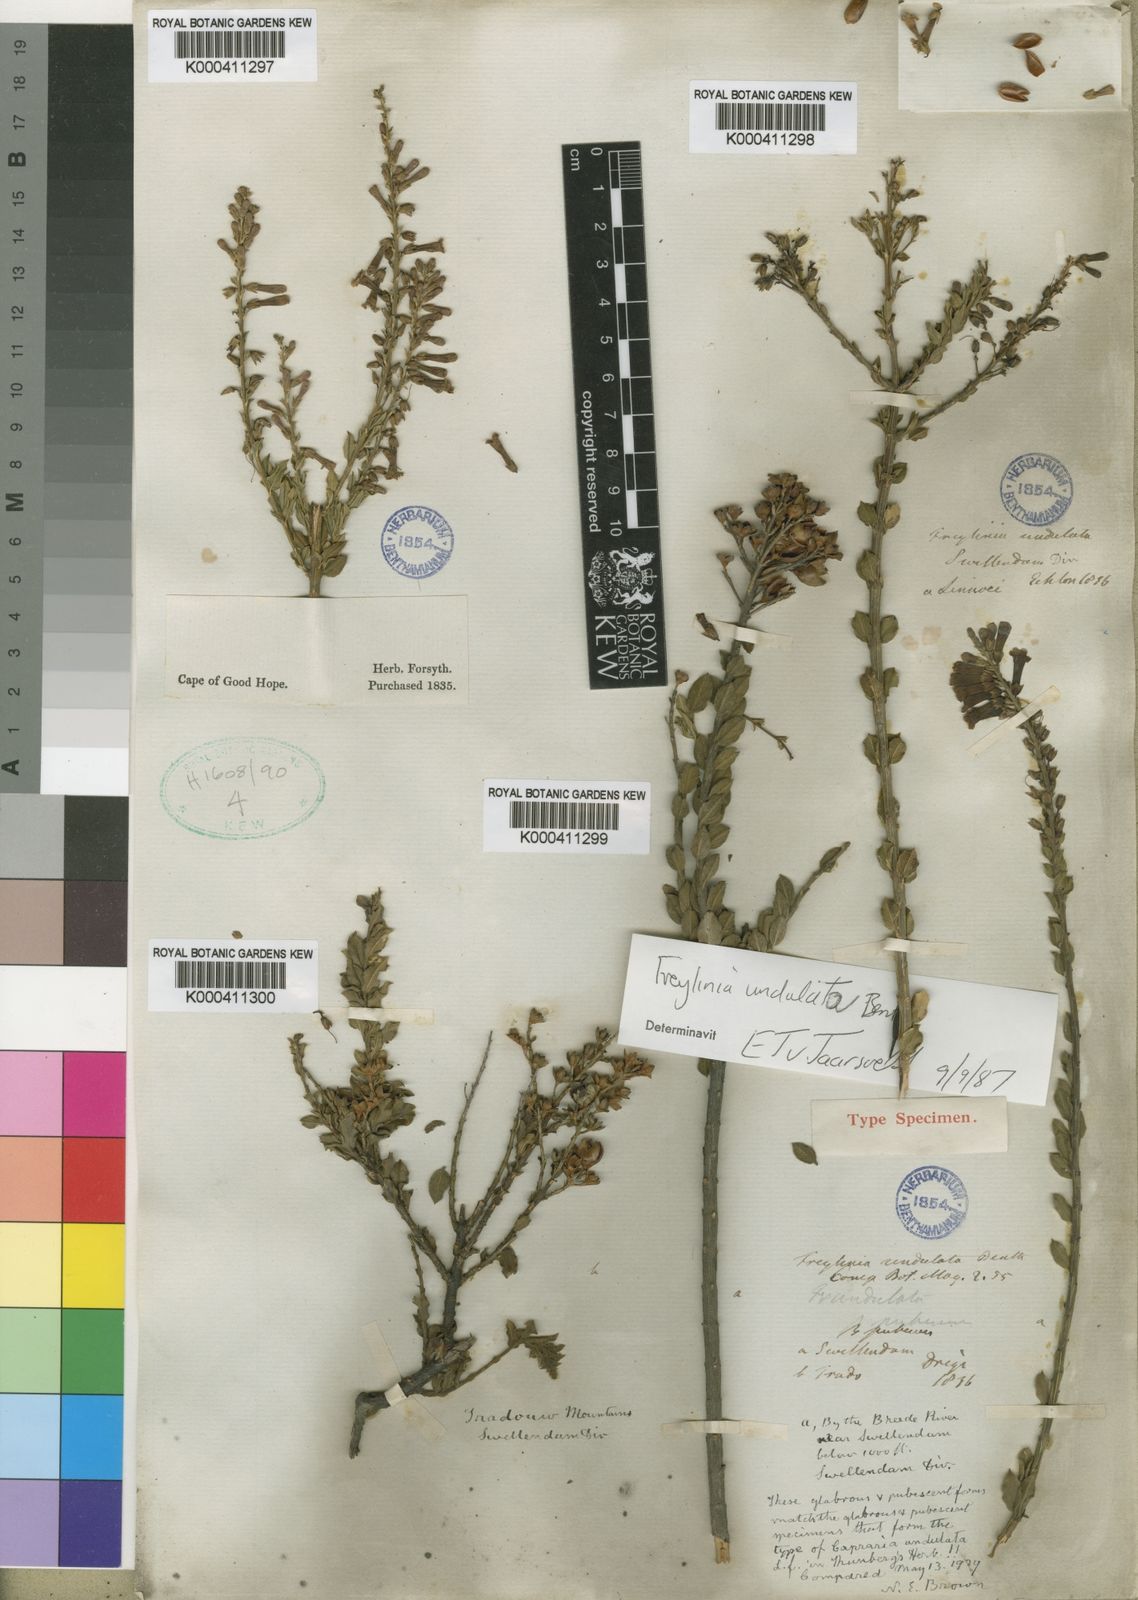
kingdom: Plantae
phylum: Tracheophyta
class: Magnoliopsida
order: Lamiales
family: Scrophulariaceae
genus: Freylinia
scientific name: Freylinia undulata
